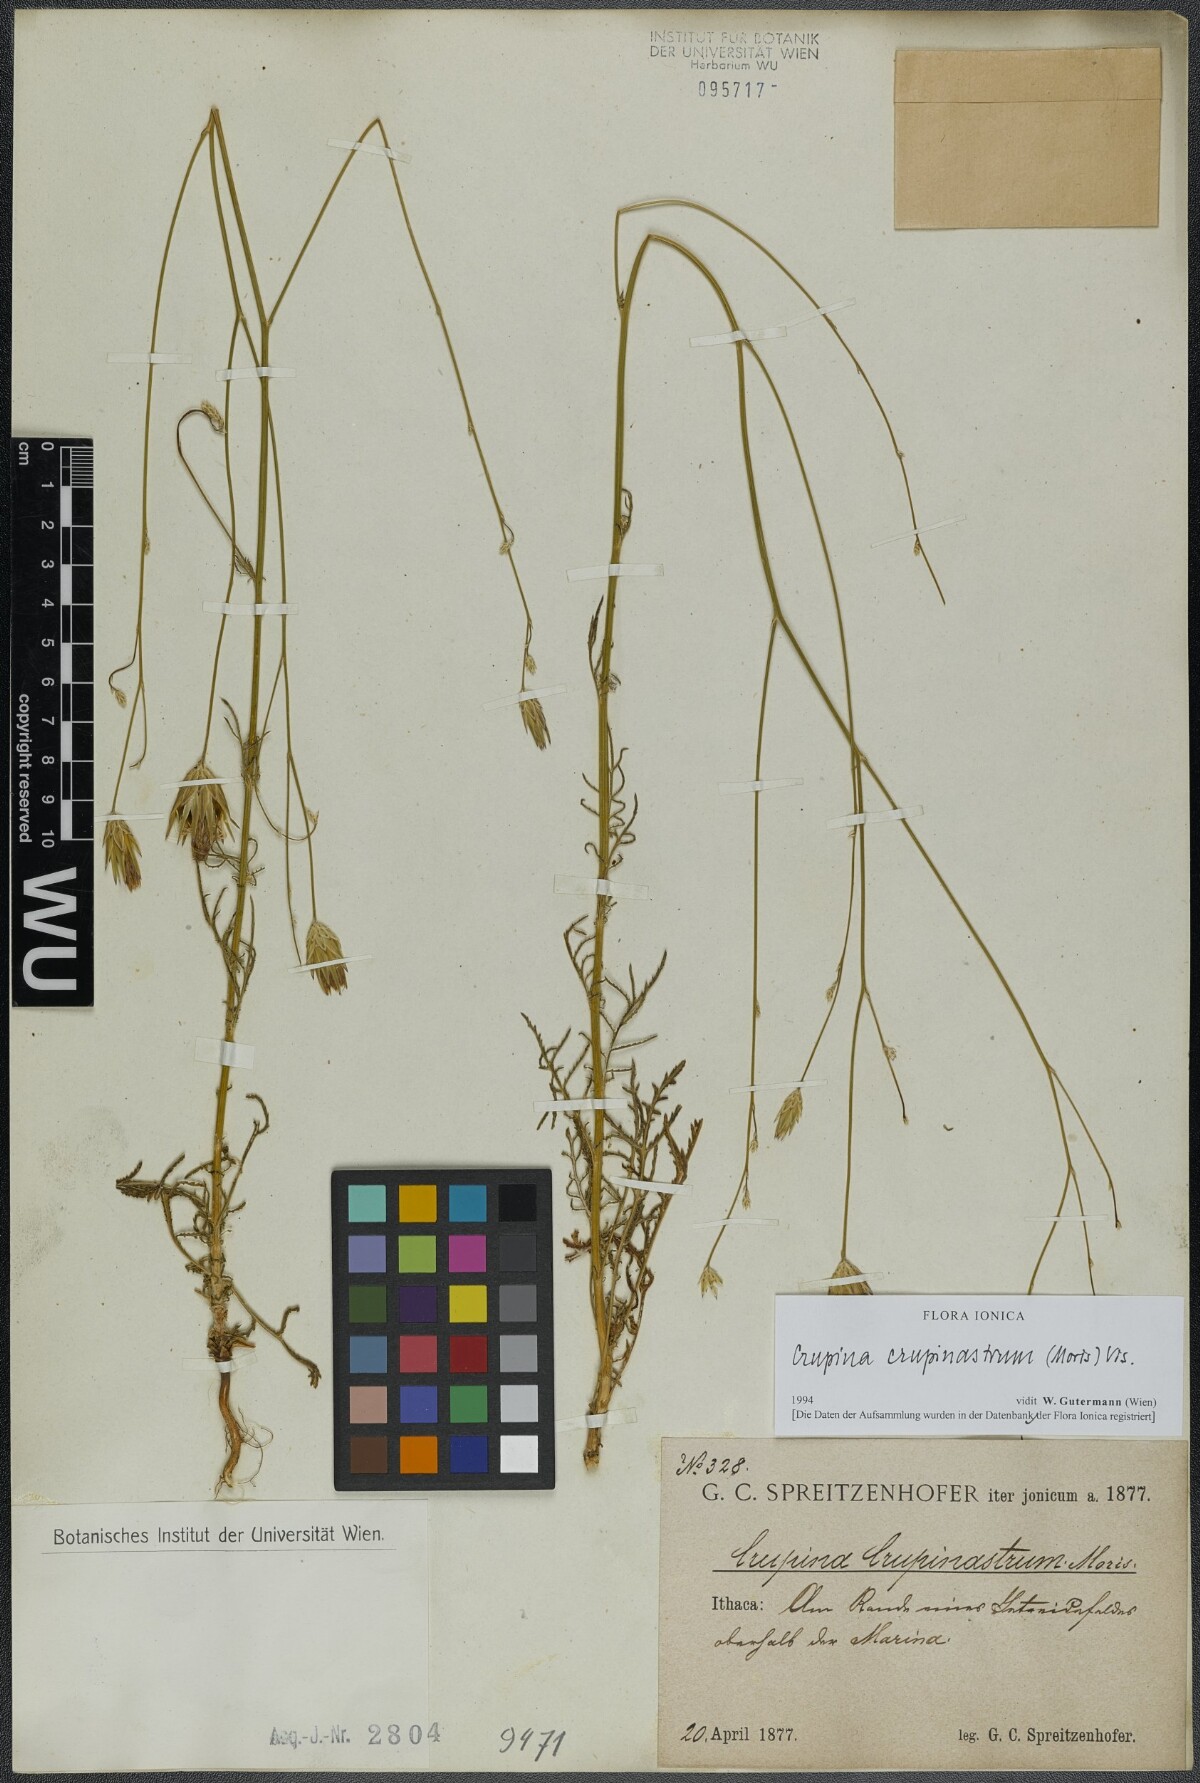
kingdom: Plantae
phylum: Tracheophyta
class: Magnoliopsida
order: Asterales
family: Asteraceae
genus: Crupina
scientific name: Crupina crupinastrum
